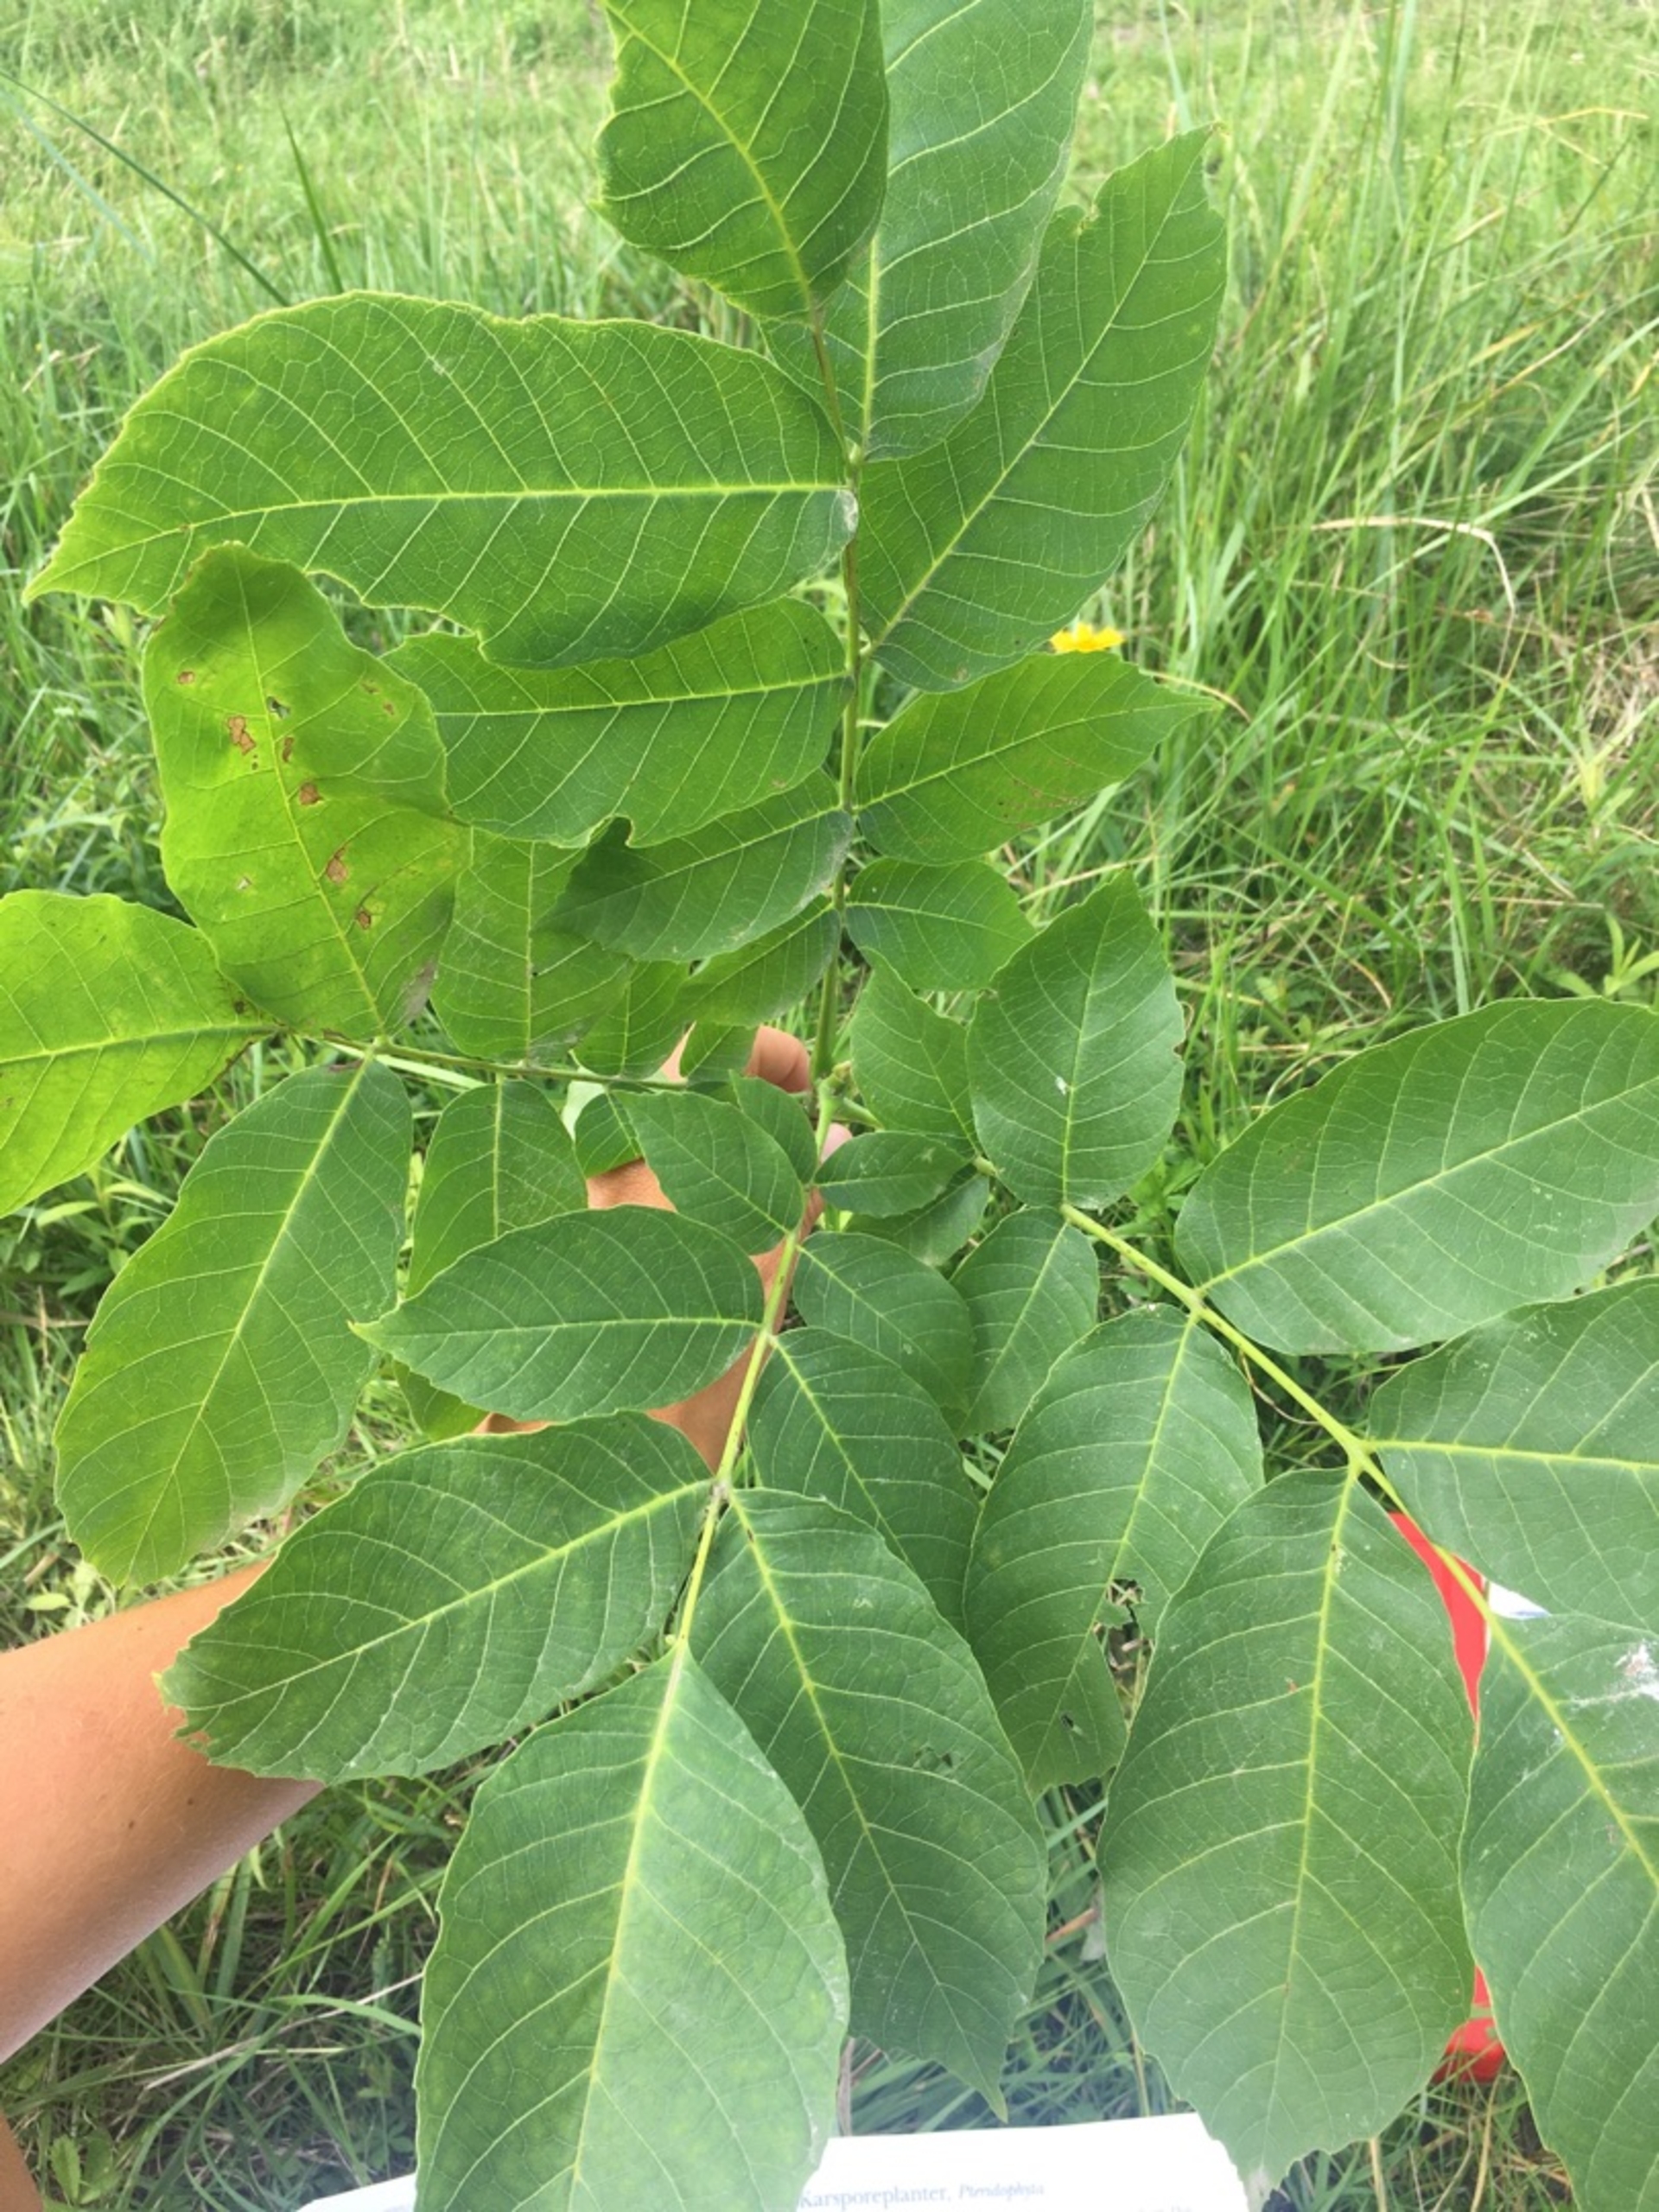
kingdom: Plantae
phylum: Tracheophyta
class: Magnoliopsida
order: Fagales
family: Juglandaceae
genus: Juglans
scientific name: Juglans regia
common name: Almindelig valnød
